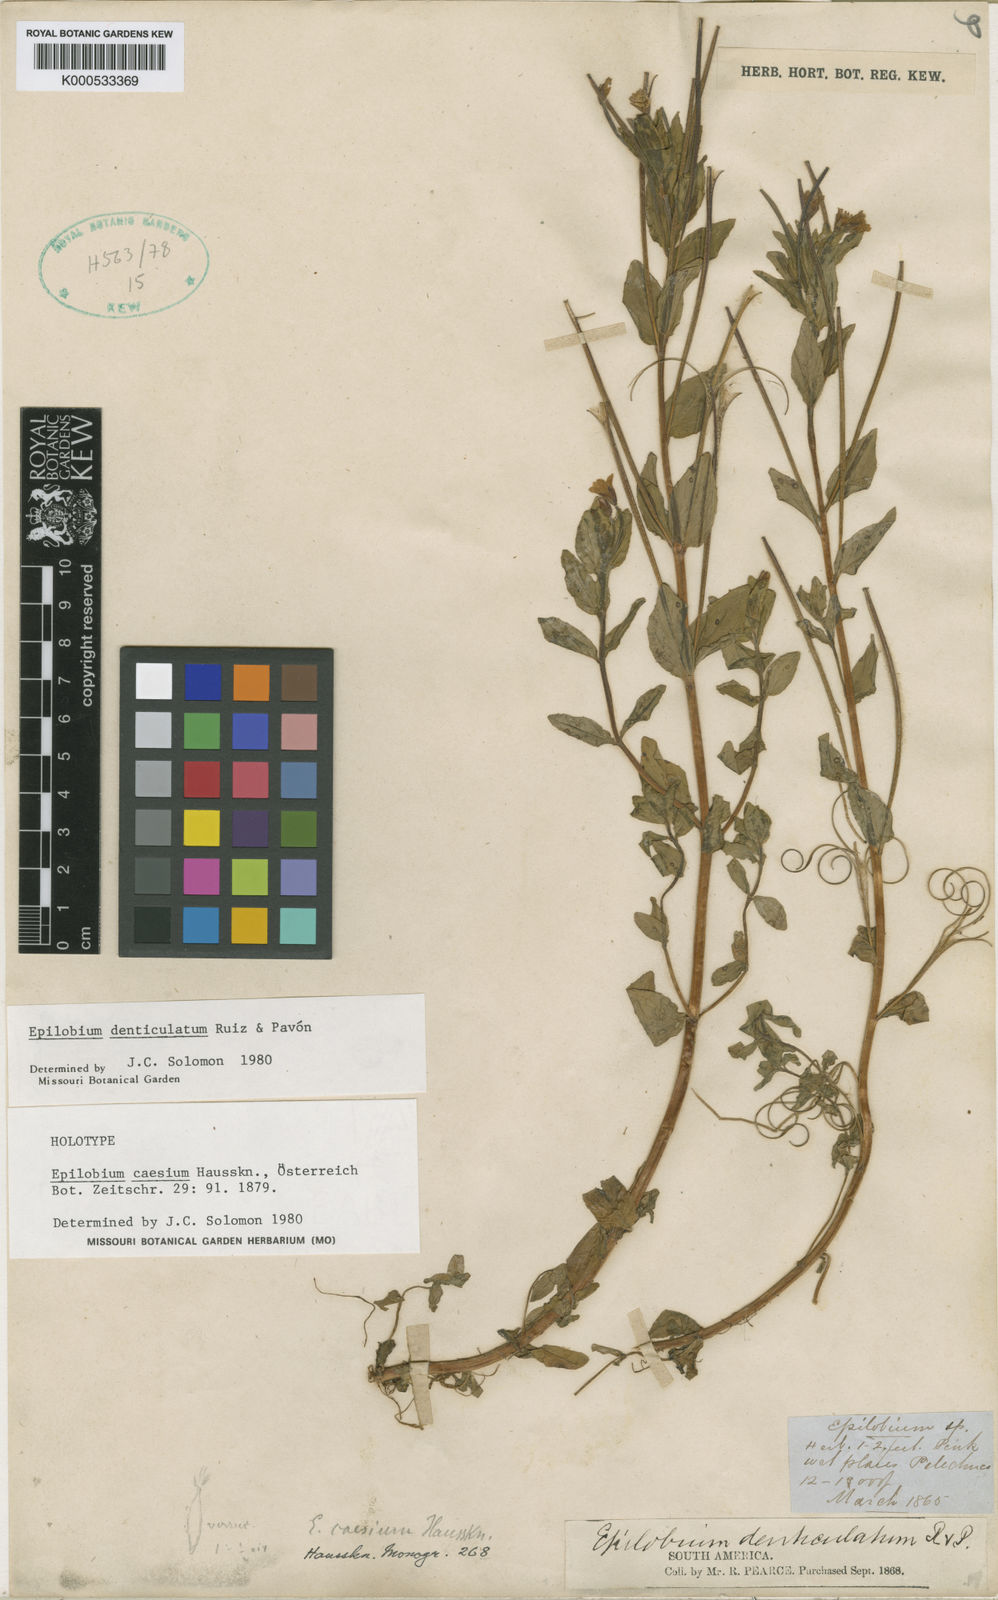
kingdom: Plantae
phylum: Tracheophyta
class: Magnoliopsida
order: Myrtales
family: Onagraceae
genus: Epilobium
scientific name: Epilobium denticulatum
